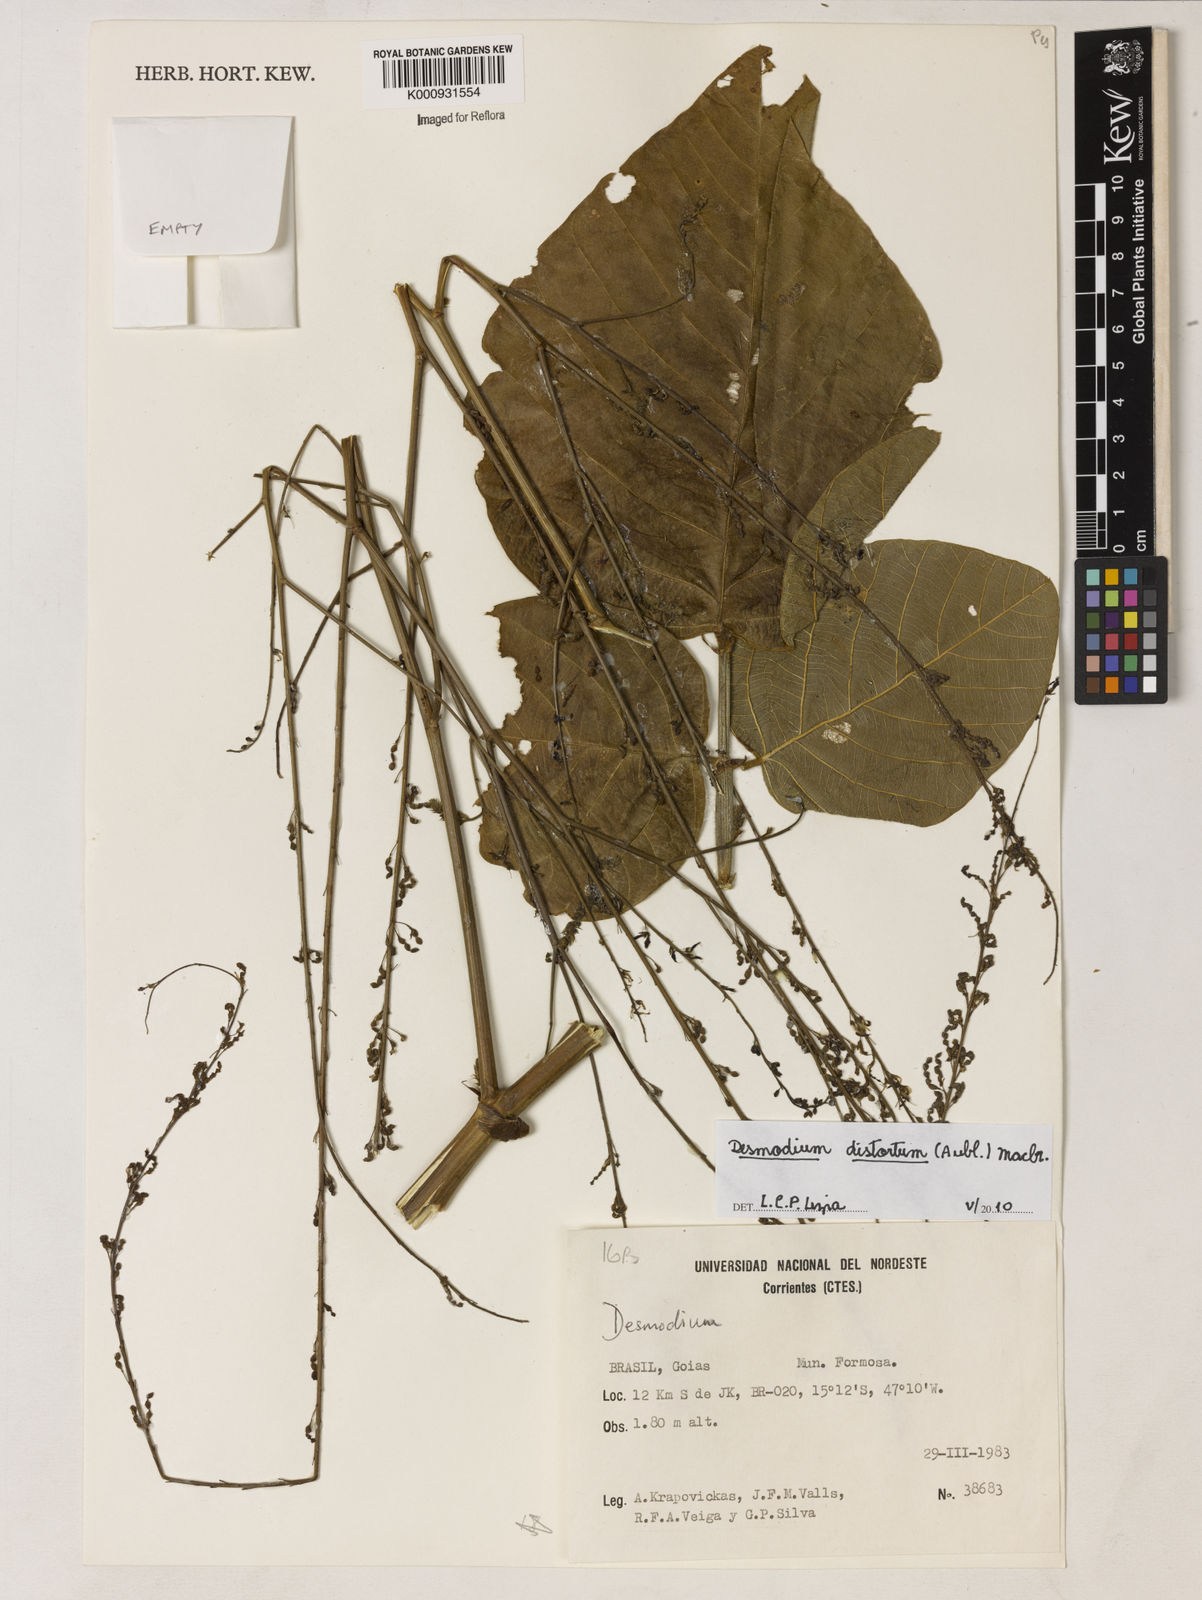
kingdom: Plantae
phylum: Tracheophyta
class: Magnoliopsida
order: Fabales
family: Fabaceae
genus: Desmodium
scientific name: Desmodium distortum
